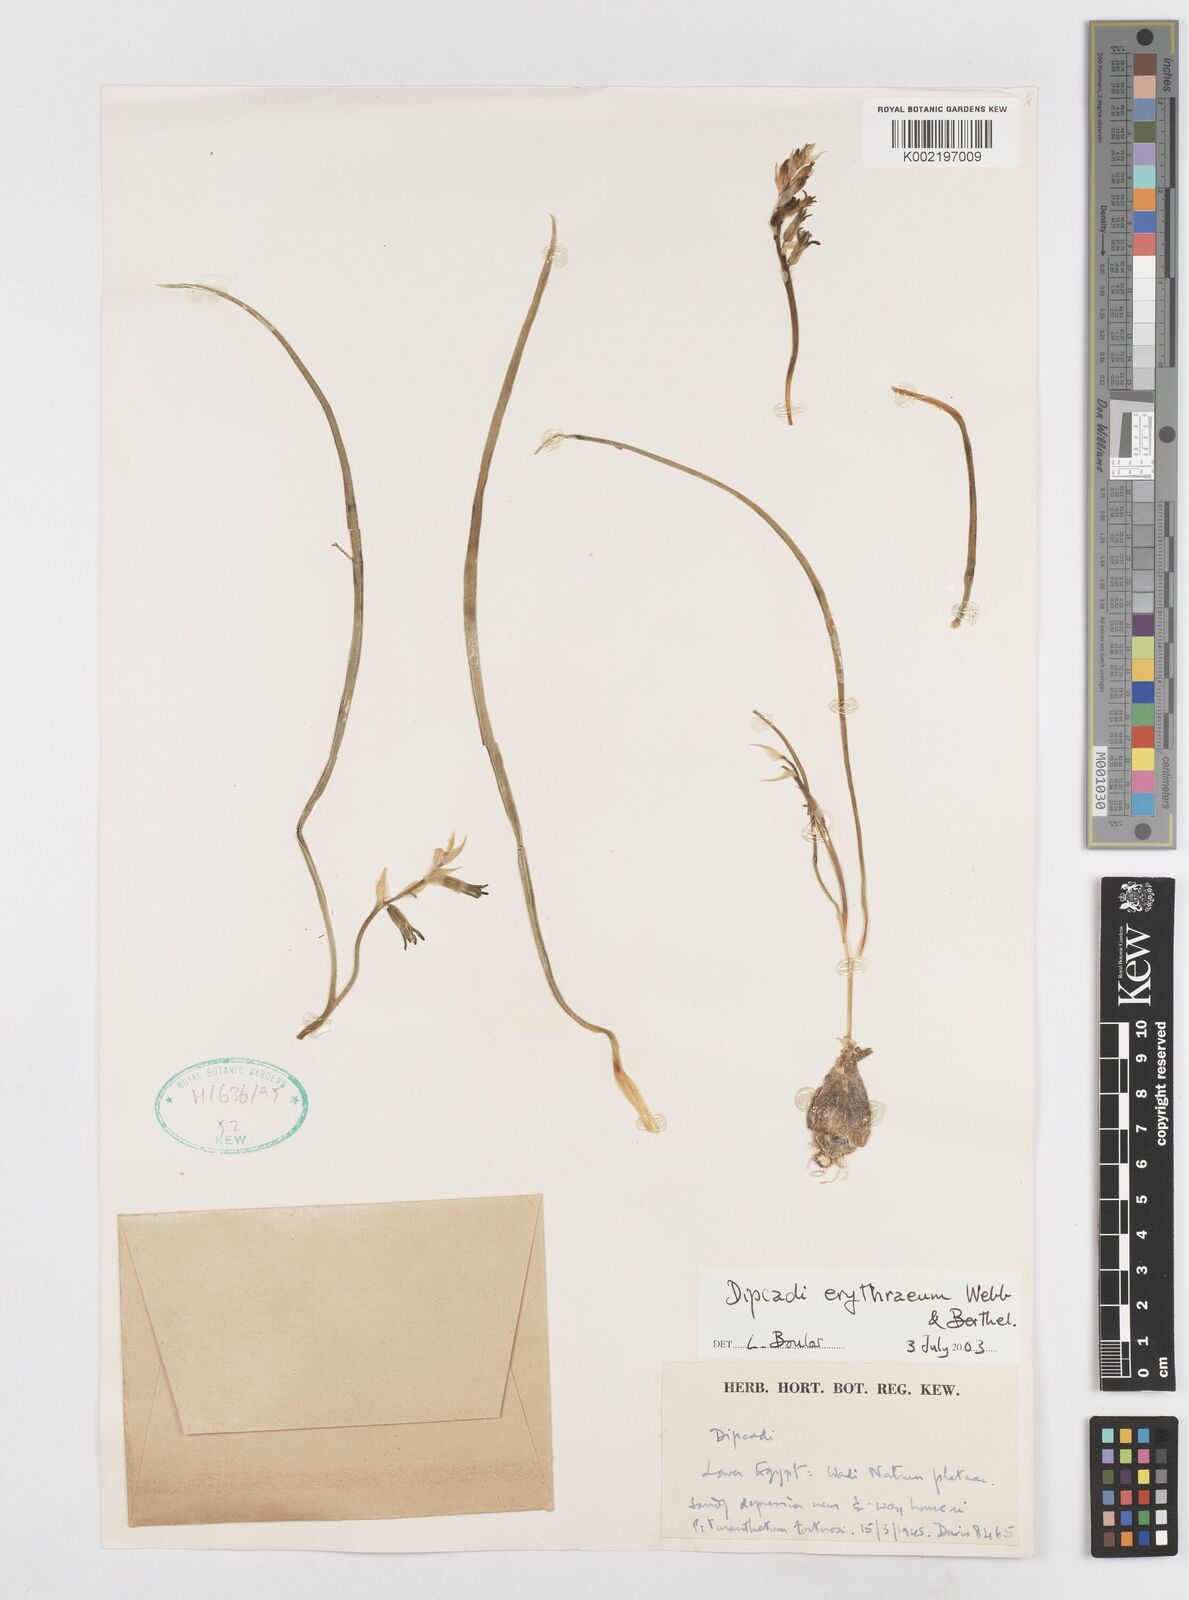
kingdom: Plantae
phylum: Tracheophyta
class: Liliopsida
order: Asparagales
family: Asparagaceae
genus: Dipcadi
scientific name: Dipcadi erythraeum
